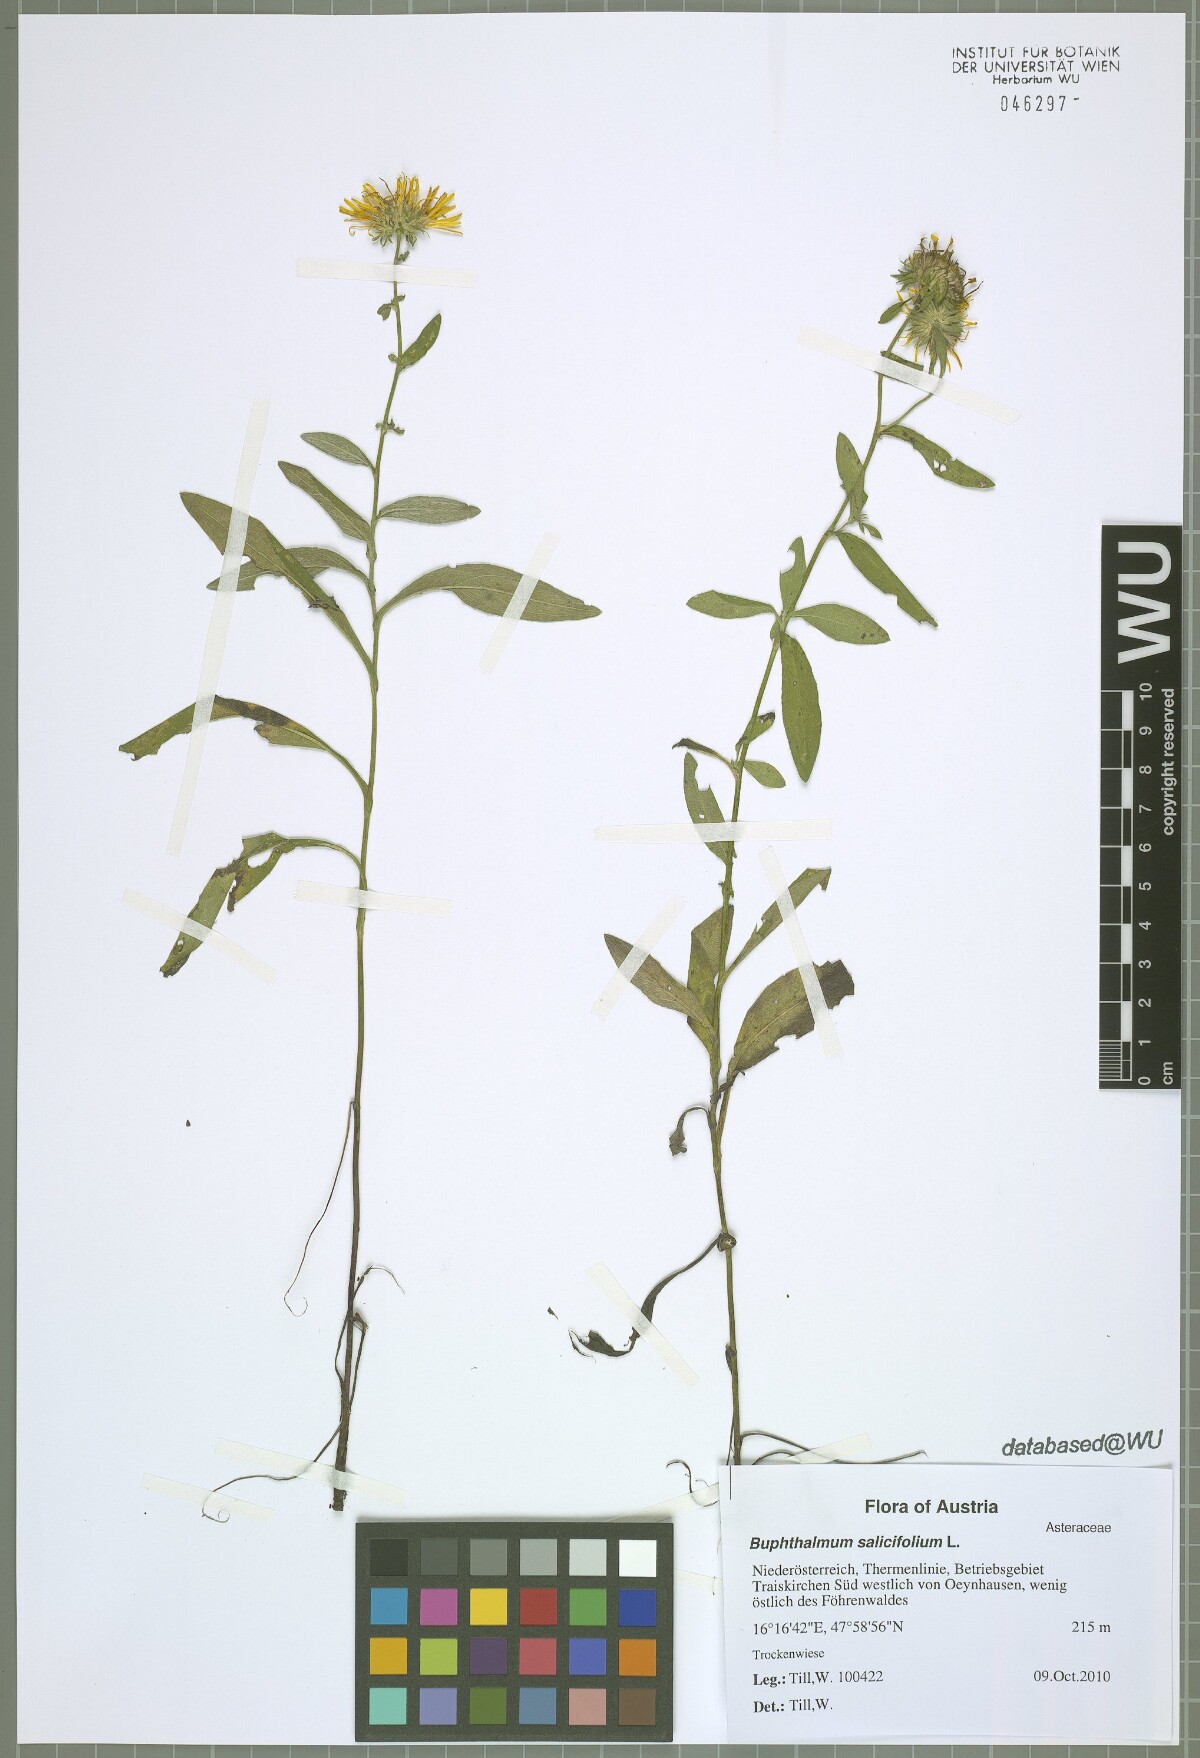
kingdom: Plantae
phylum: Tracheophyta
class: Magnoliopsida
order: Asterales
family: Asteraceae
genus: Pentanema
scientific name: Pentanema britannicum
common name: British elecampane
